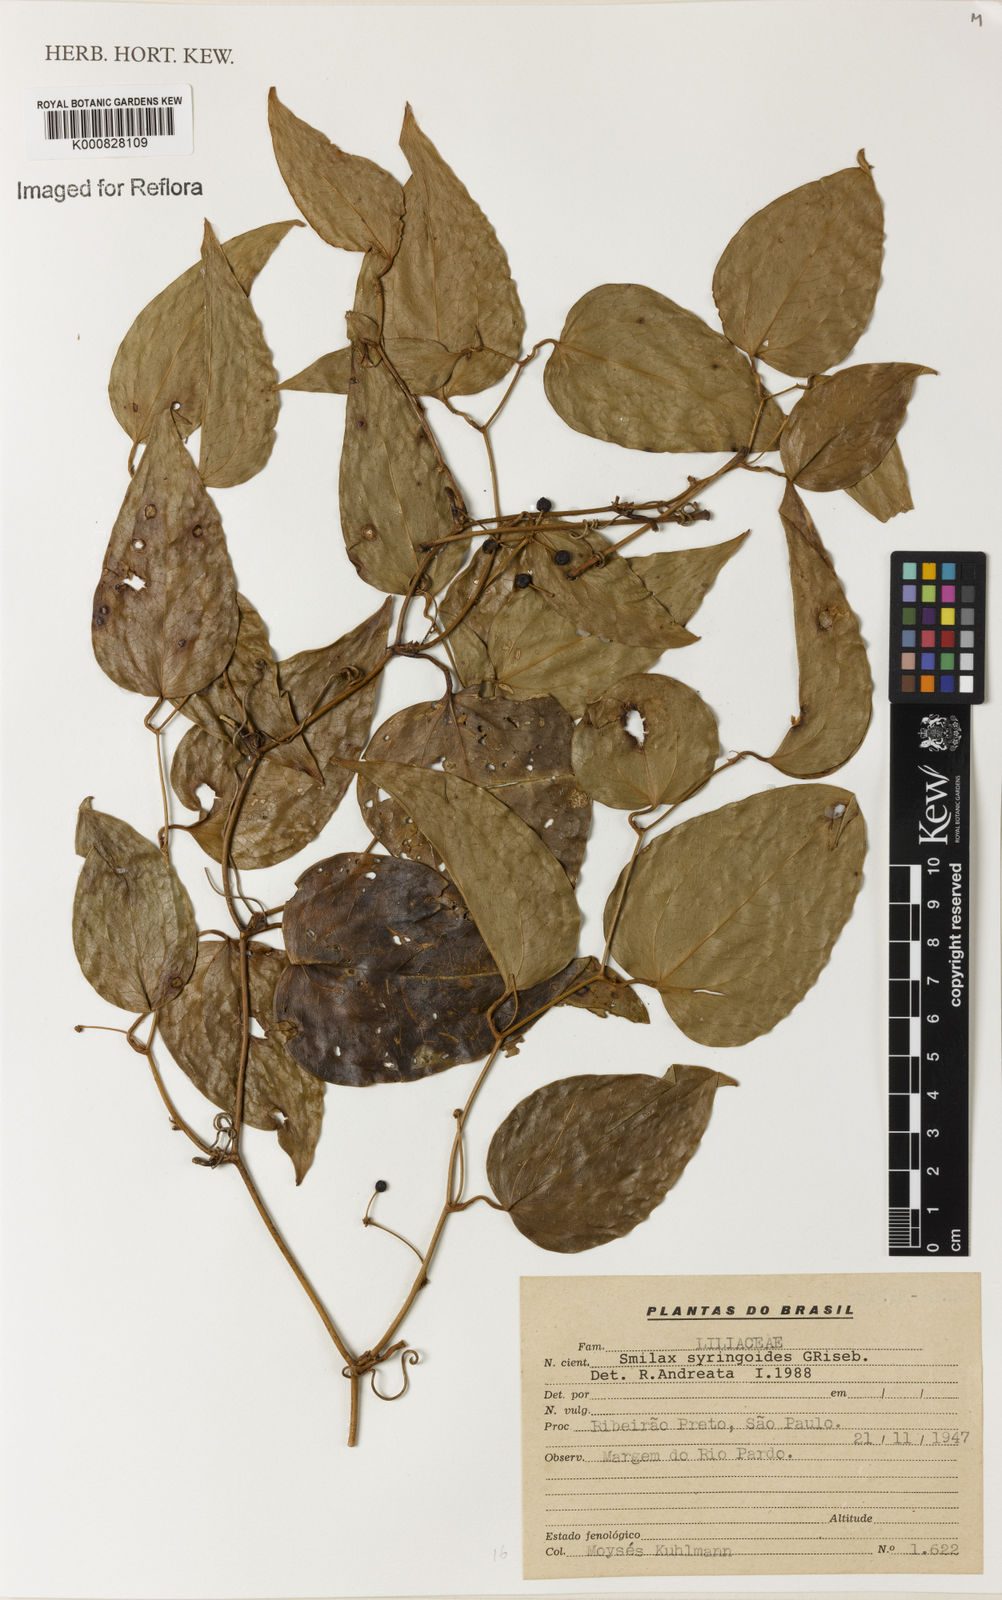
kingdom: Plantae
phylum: Tracheophyta
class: Liliopsida
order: Liliales
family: Smilacaceae
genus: Smilax
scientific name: Smilax fluminensis
